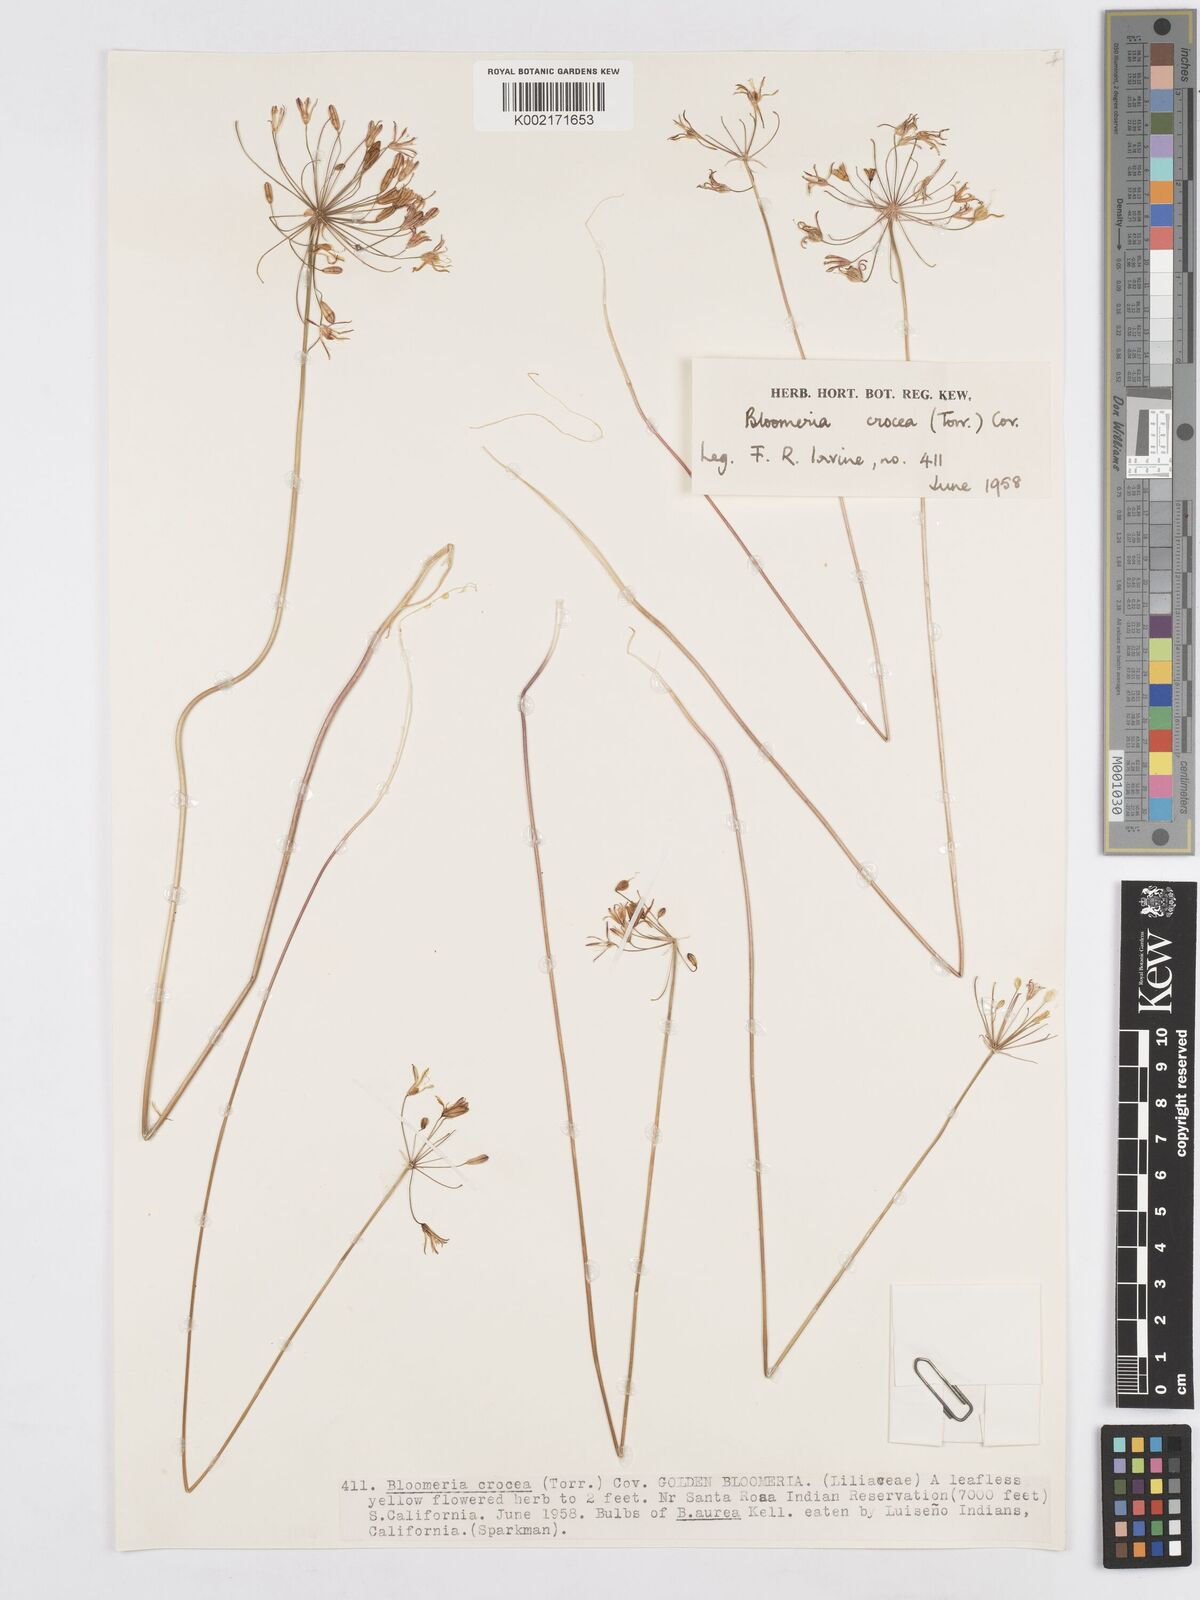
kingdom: Plantae
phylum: Tracheophyta
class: Liliopsida
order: Asparagales
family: Asparagaceae
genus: Bloomeria
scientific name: Bloomeria crocea
